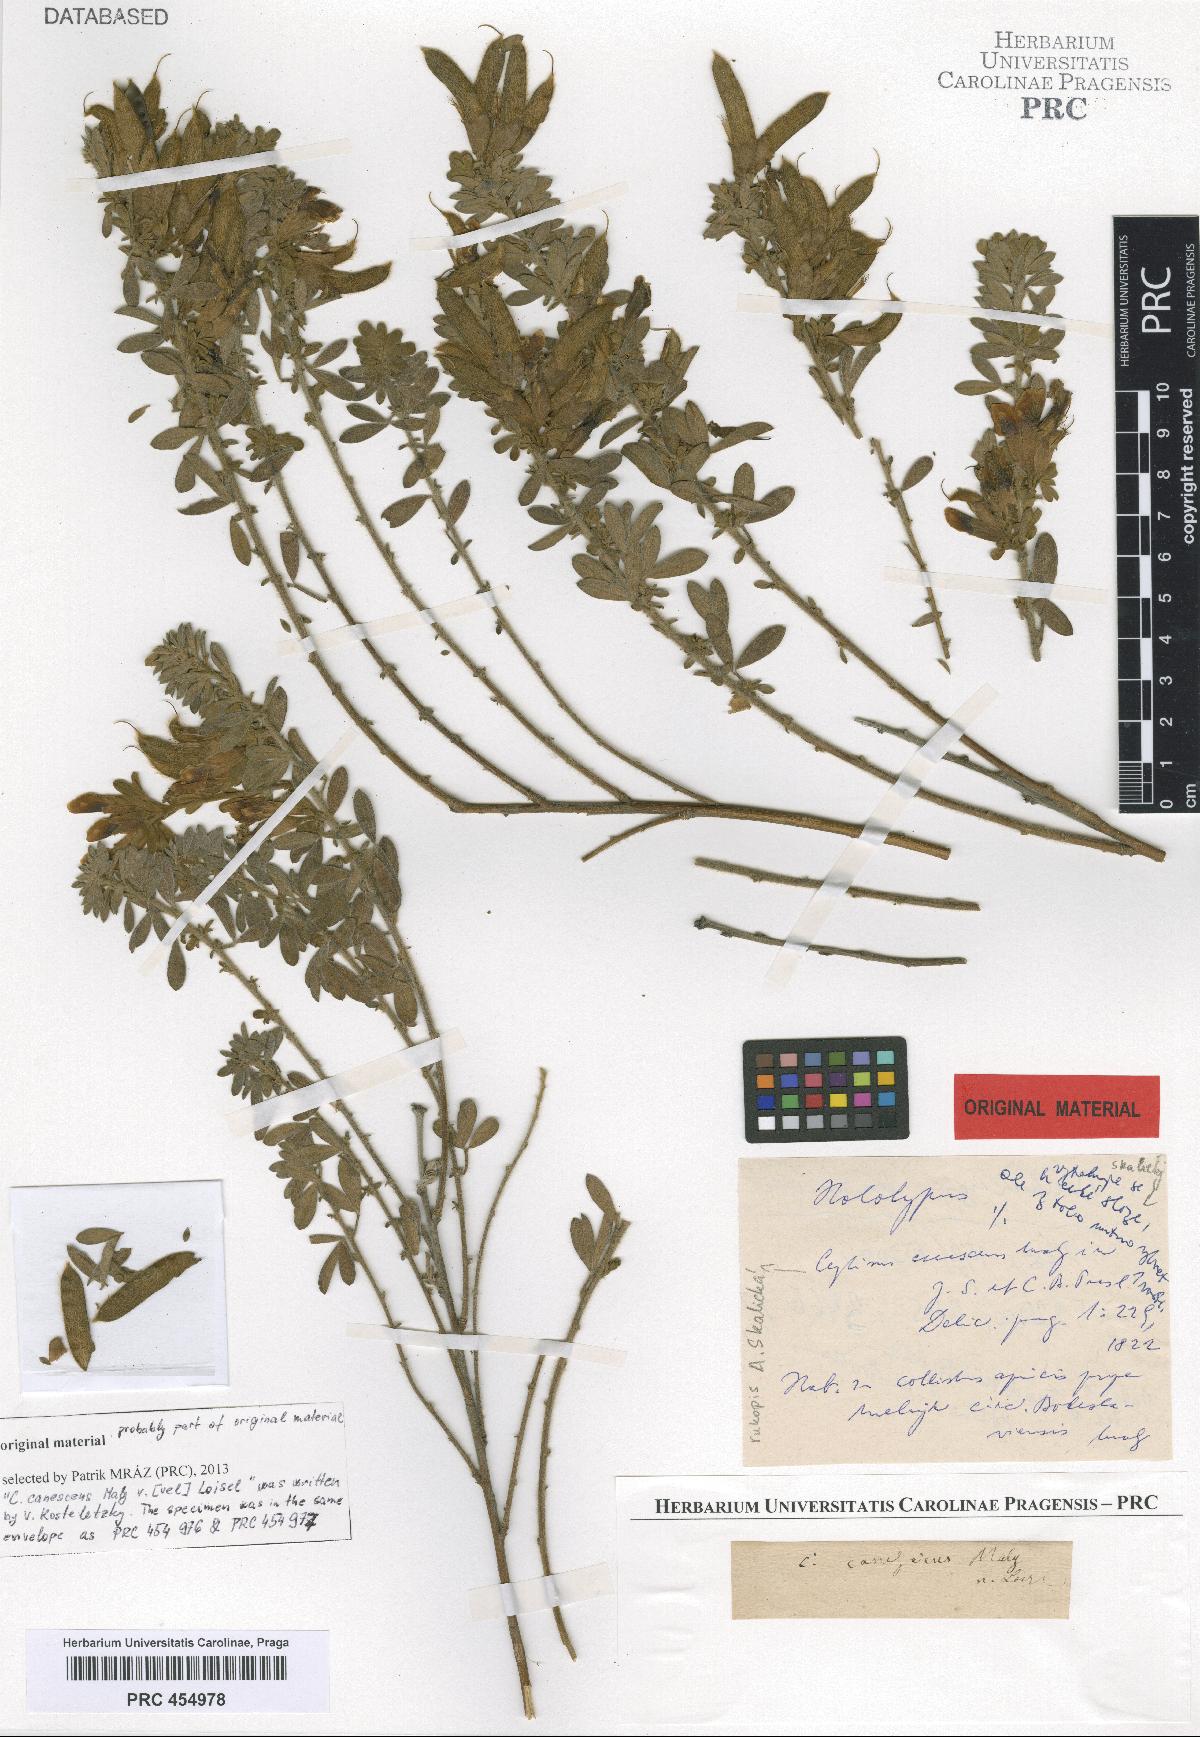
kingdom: Plantae
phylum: Tracheophyta
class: Magnoliopsida
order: Fabales
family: Fabaceae
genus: Chamaecytisus
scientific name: Chamaecytisus austriacus
